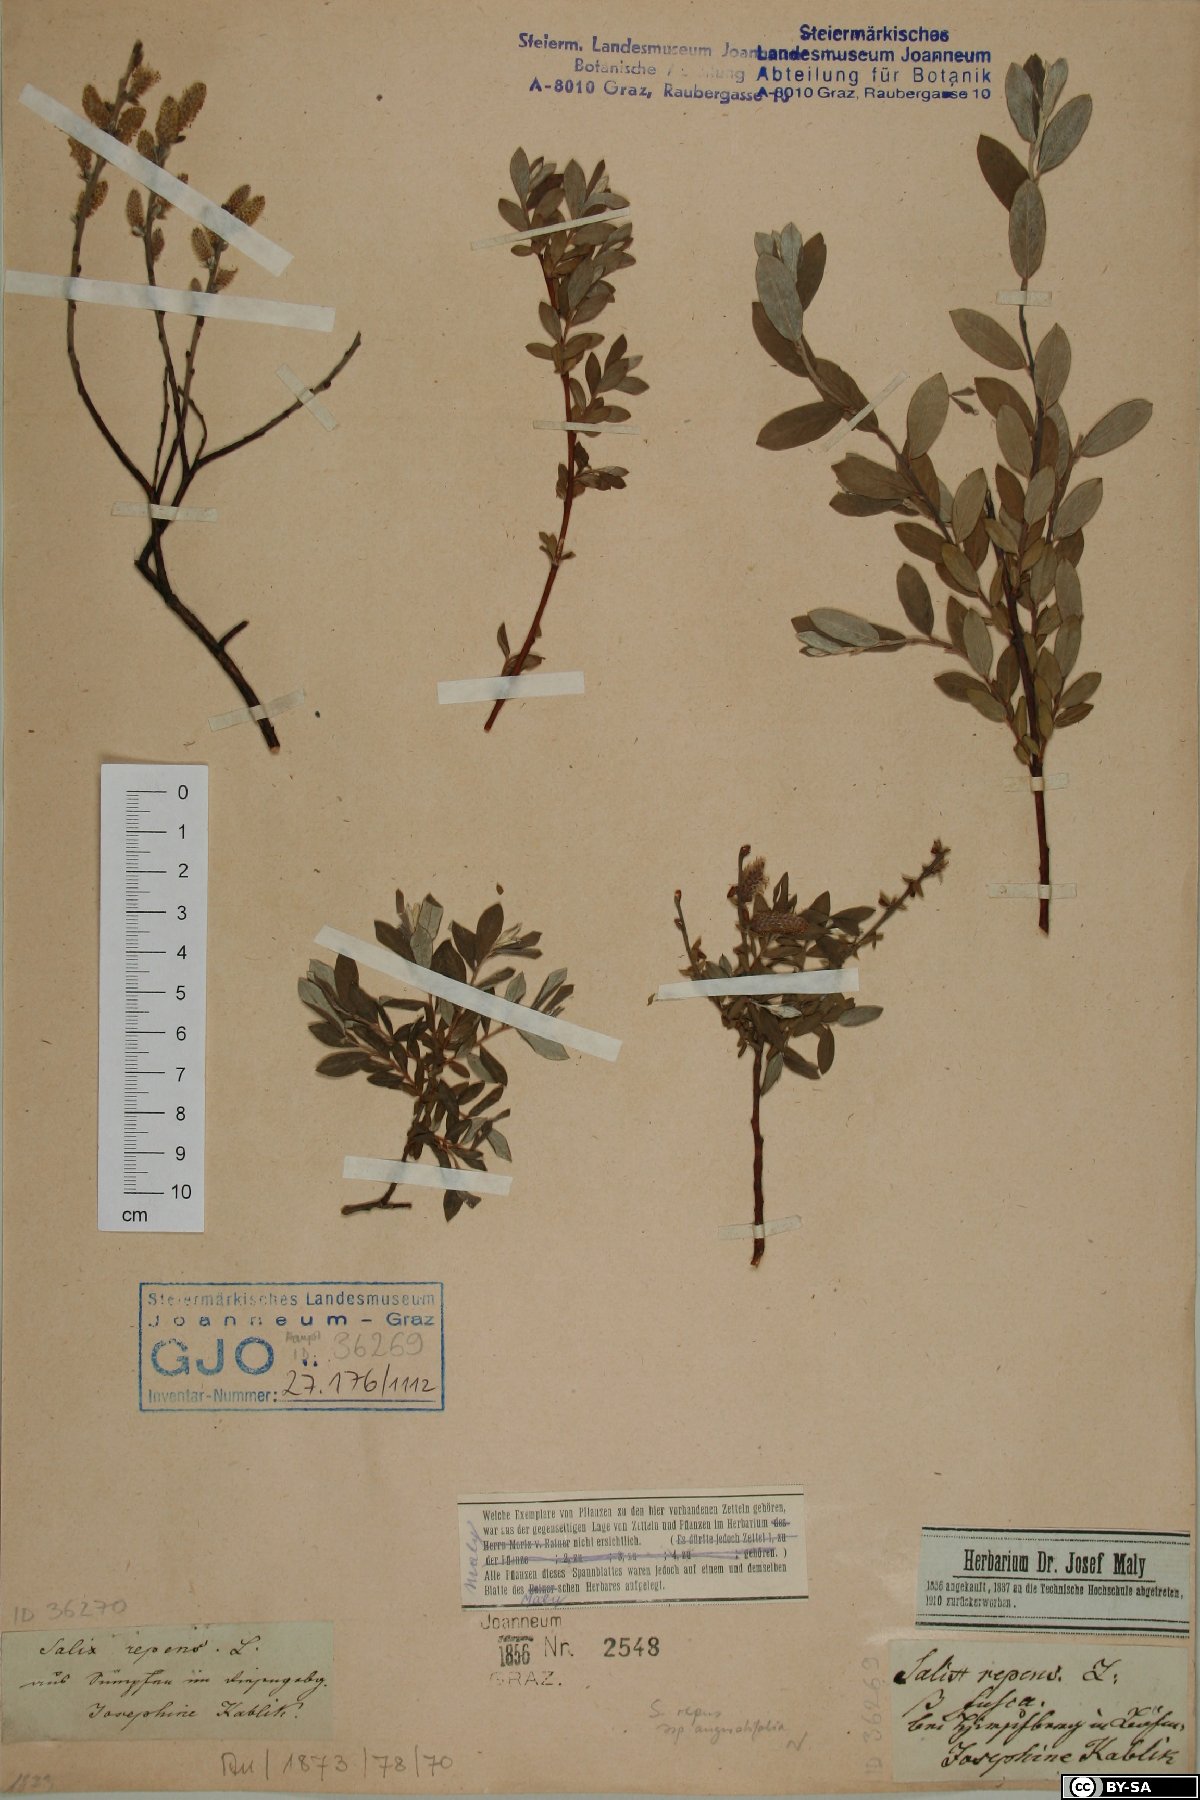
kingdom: Plantae
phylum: Tracheophyta
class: Magnoliopsida
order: Malpighiales
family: Salicaceae
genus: Salix
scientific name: Salix rosmarinifolia
